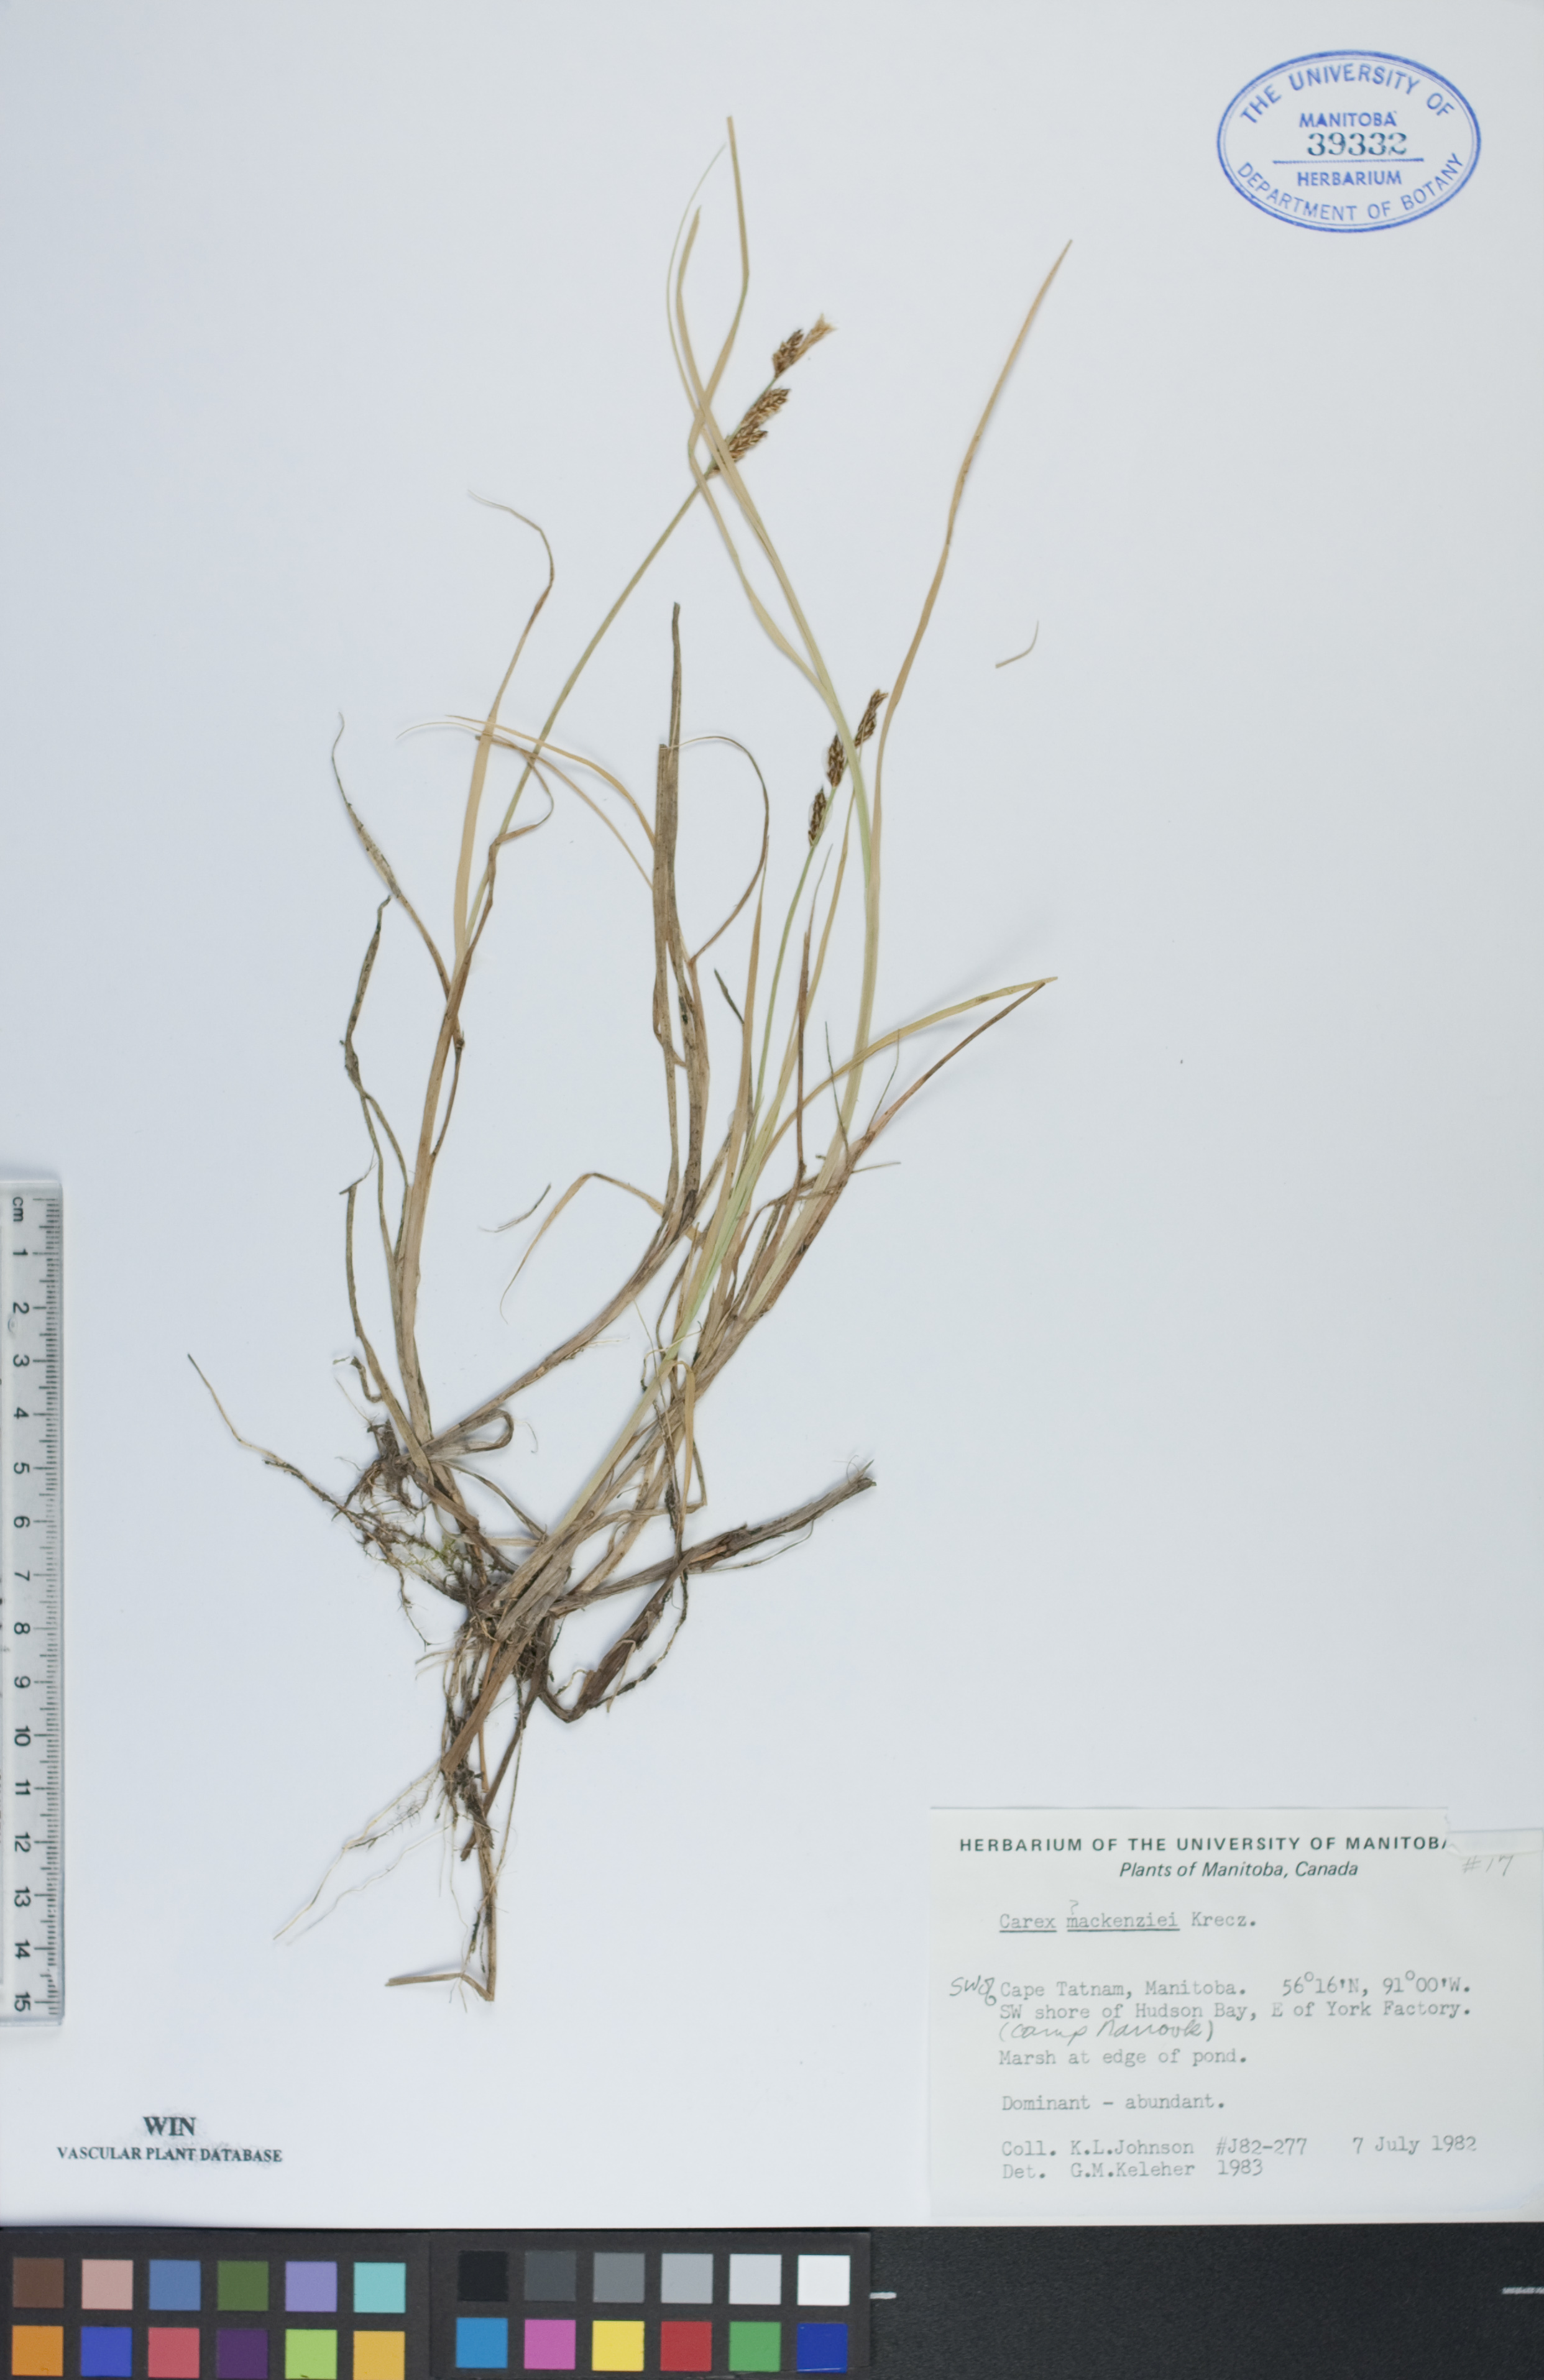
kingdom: Plantae
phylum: Tracheophyta
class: Liliopsida
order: Poales
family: Cyperaceae
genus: Carex
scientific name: Carex mackenziei
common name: Mackenzie's sedge
